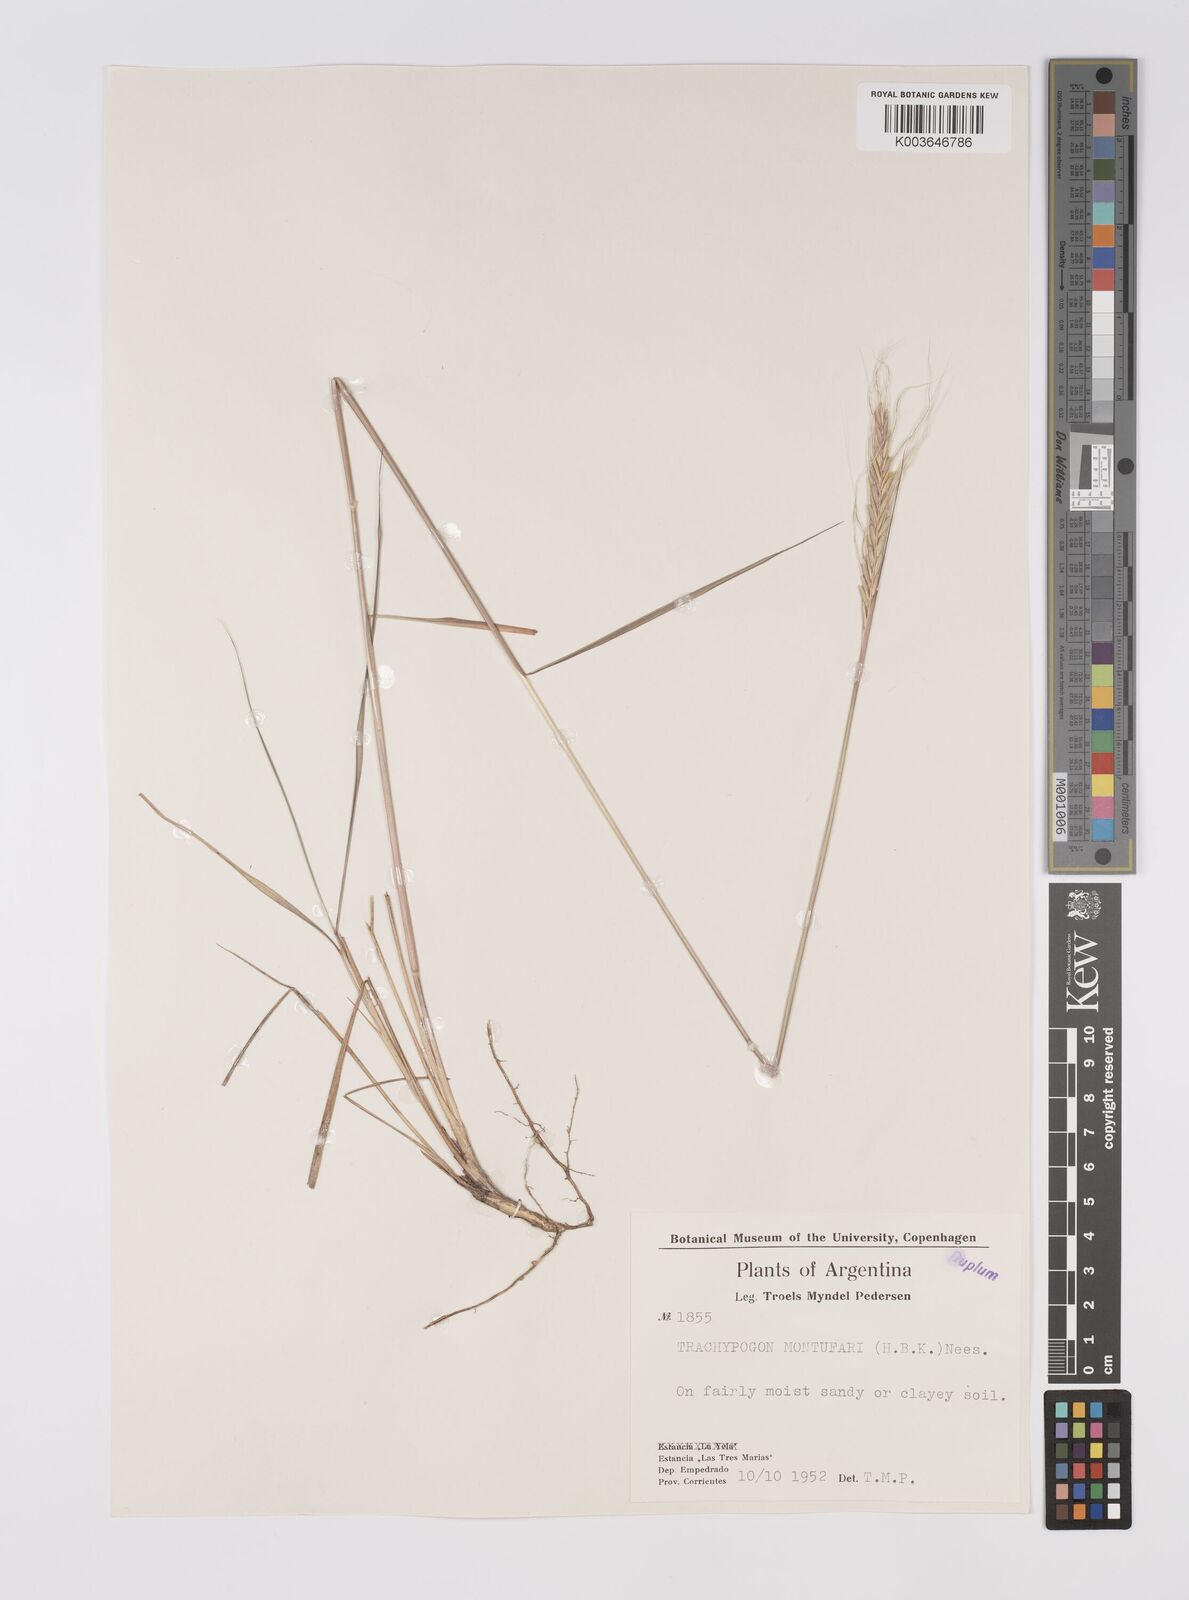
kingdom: Plantae
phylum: Tracheophyta
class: Liliopsida
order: Poales
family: Poaceae
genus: Trachypogon
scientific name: Trachypogon spicatus
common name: Crinkle-awn
